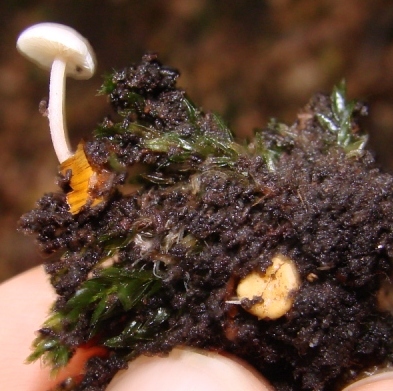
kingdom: Fungi
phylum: Basidiomycota
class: Agaricomycetes
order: Agaricales
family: Tricholomataceae
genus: Collybia
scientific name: Collybia cookei
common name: gulknoldet lighat
